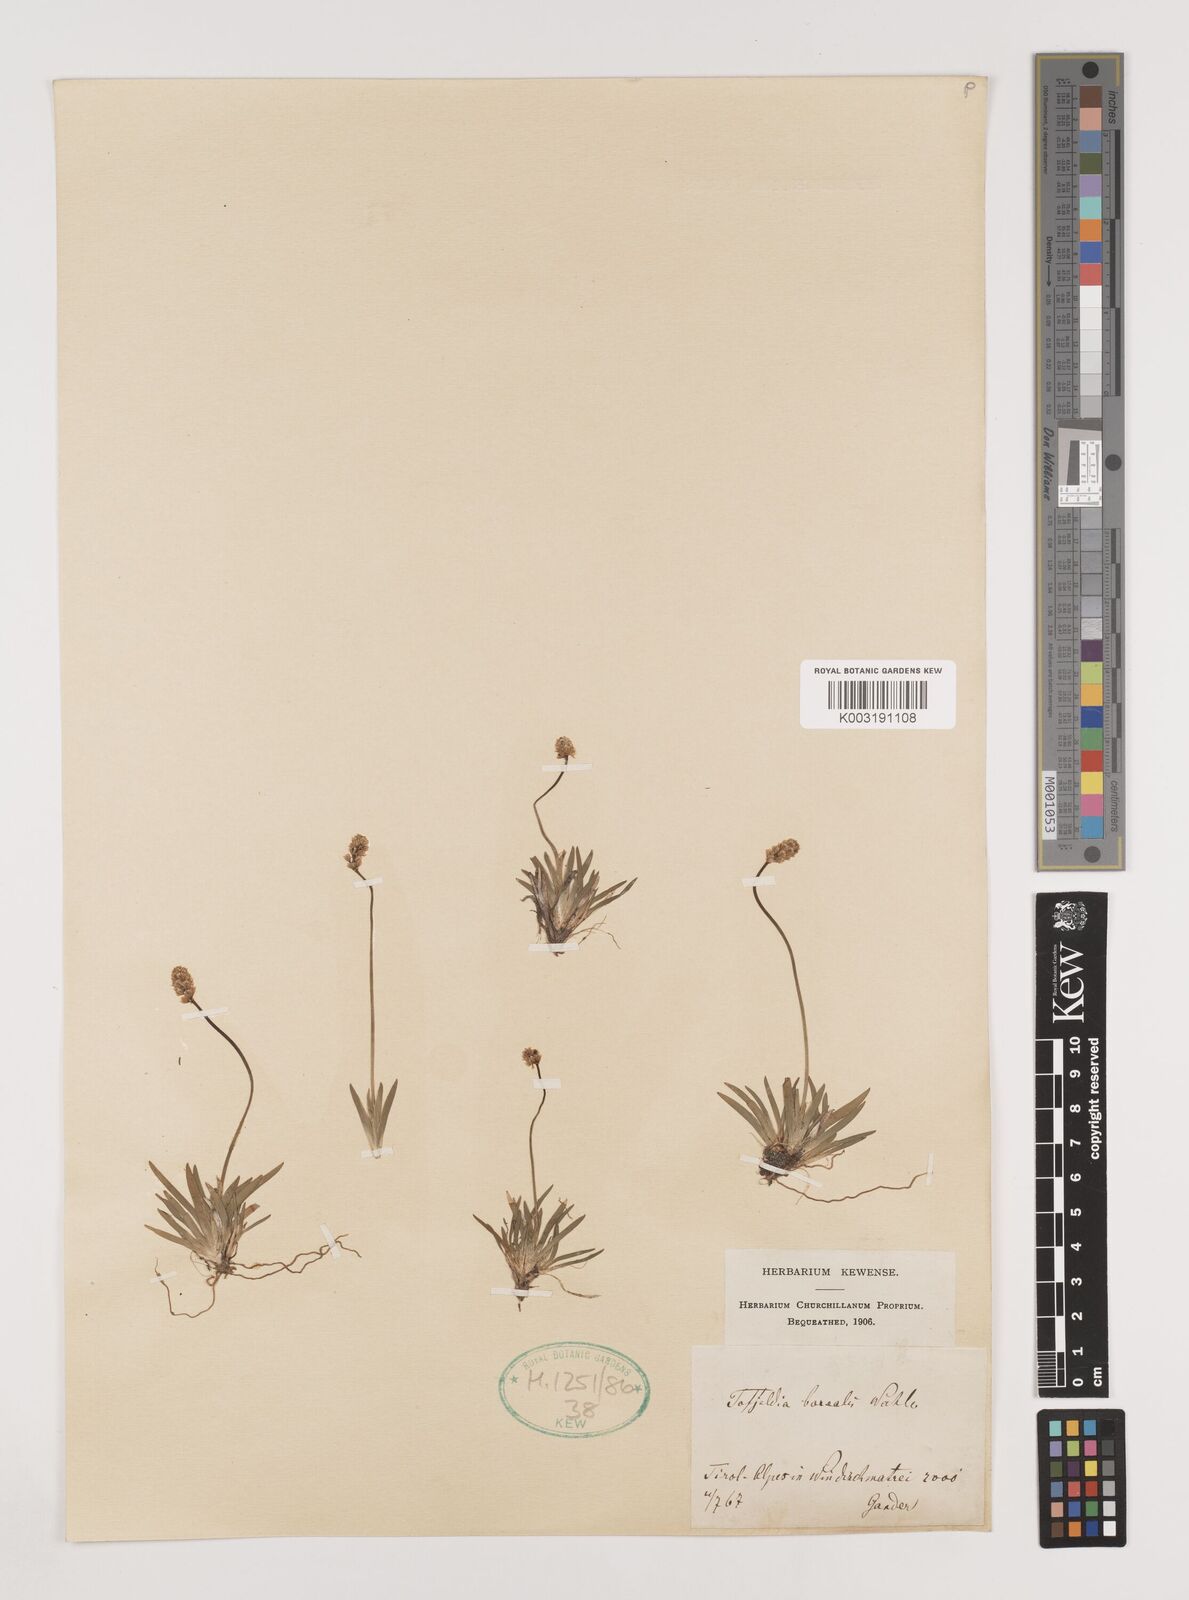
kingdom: Plantae
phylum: Tracheophyta
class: Liliopsida
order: Alismatales
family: Tofieldiaceae
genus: Tofieldia
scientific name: Tofieldia pusilla
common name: Scottish false asphodel
